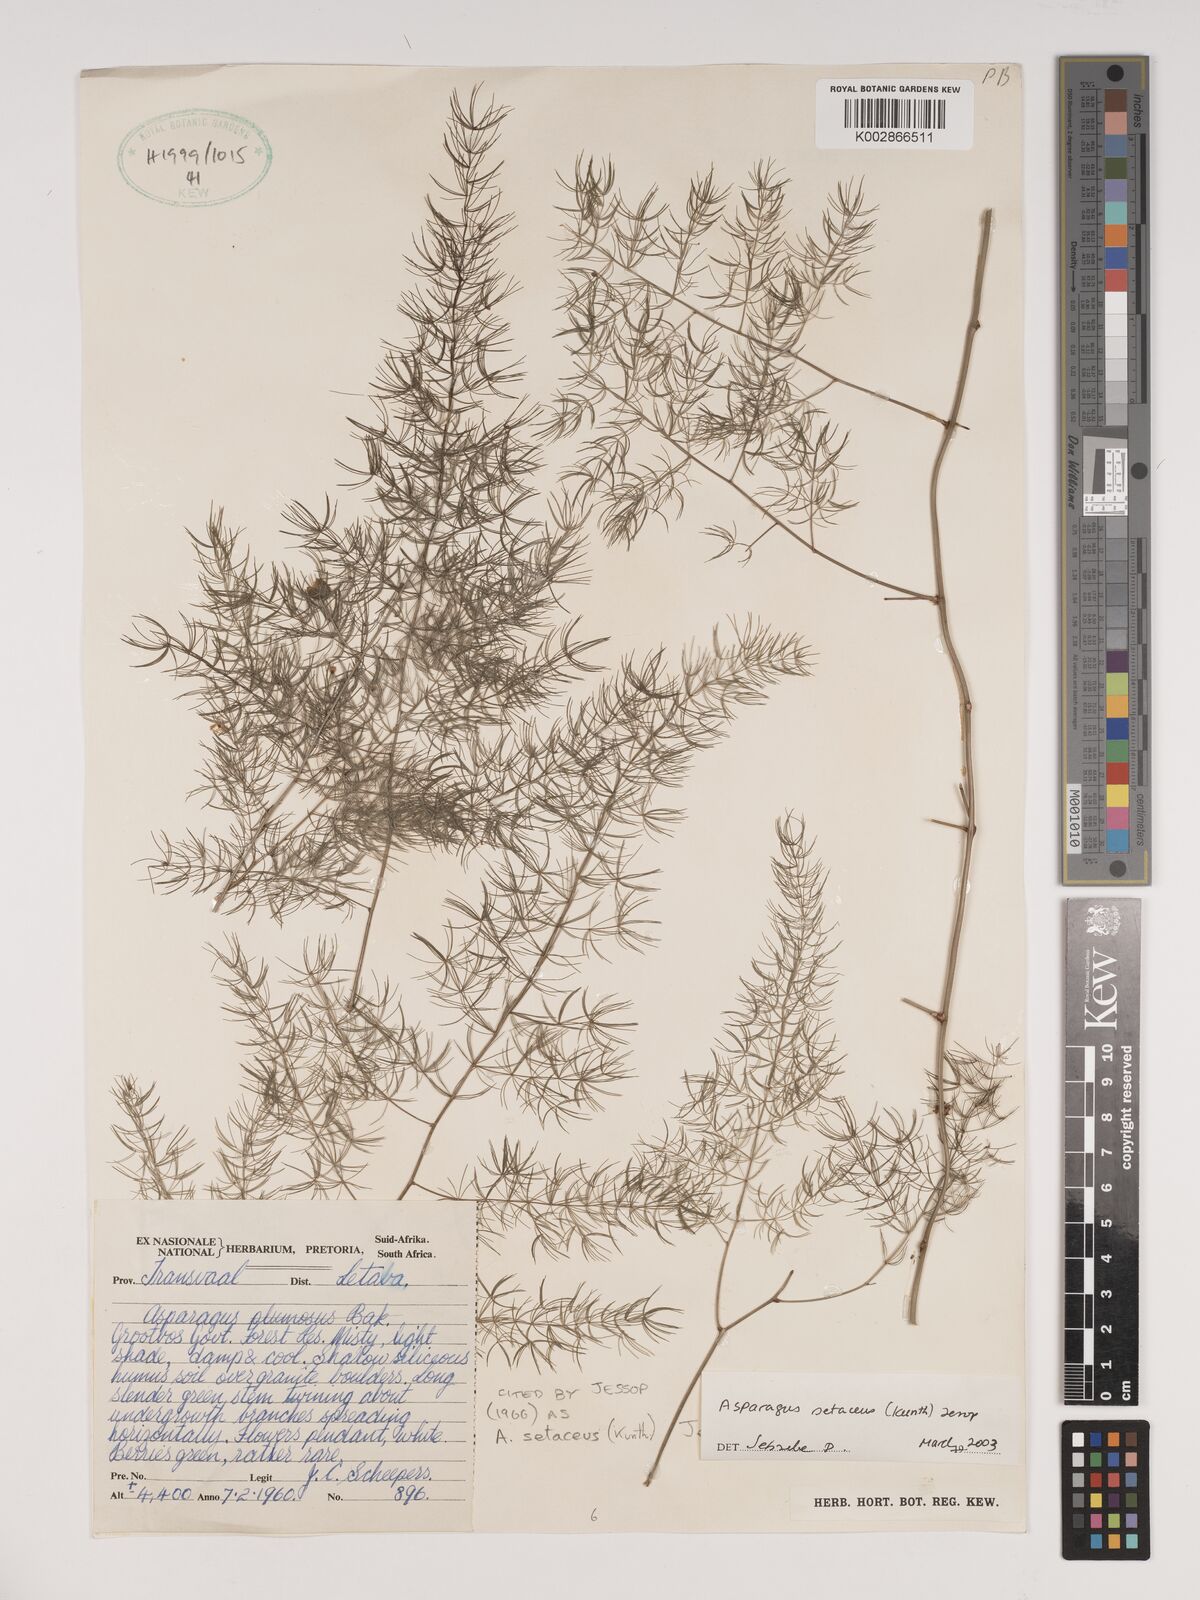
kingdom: Plantae
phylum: Tracheophyta
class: Liliopsida
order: Asparagales
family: Asparagaceae
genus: Asparagus
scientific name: Asparagus setaceus
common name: Common asparagus fern
